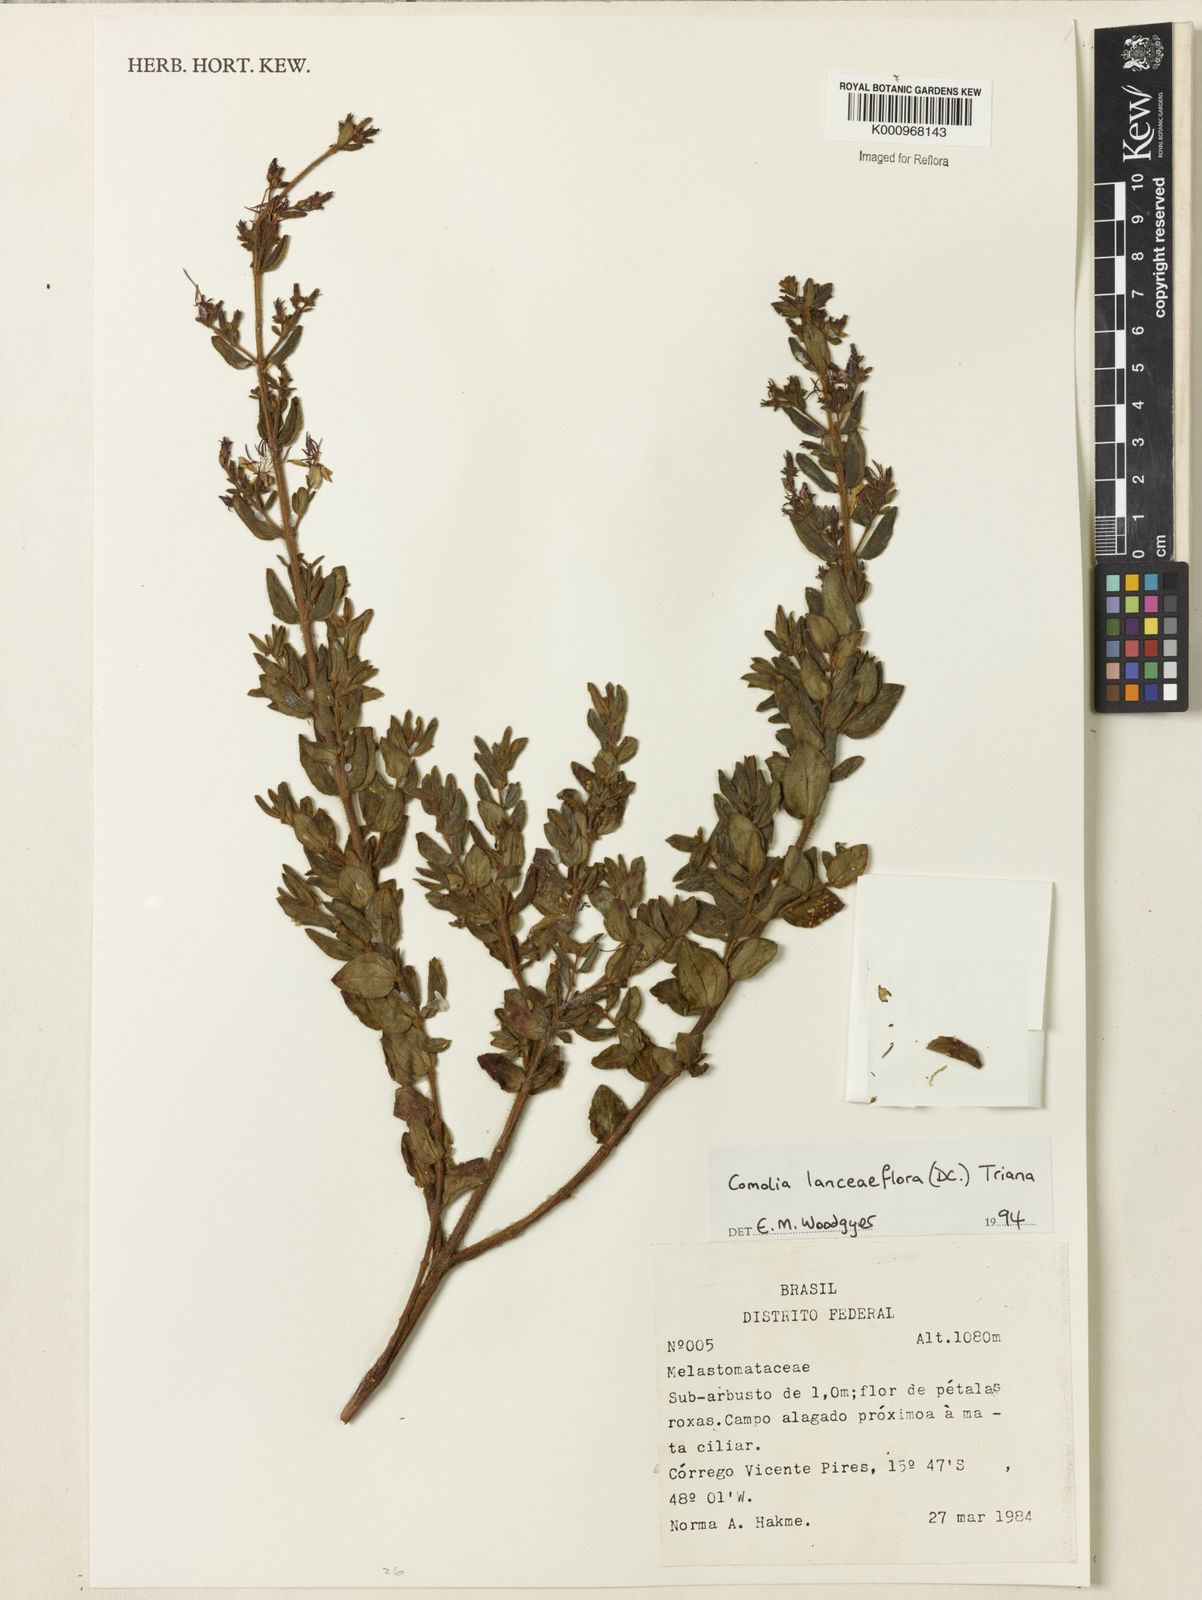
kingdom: Plantae
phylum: Tracheophyta
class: Magnoliopsida
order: Myrtales
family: Melastomataceae
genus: Fritzschia
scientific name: Fritzschia lanceiflora
